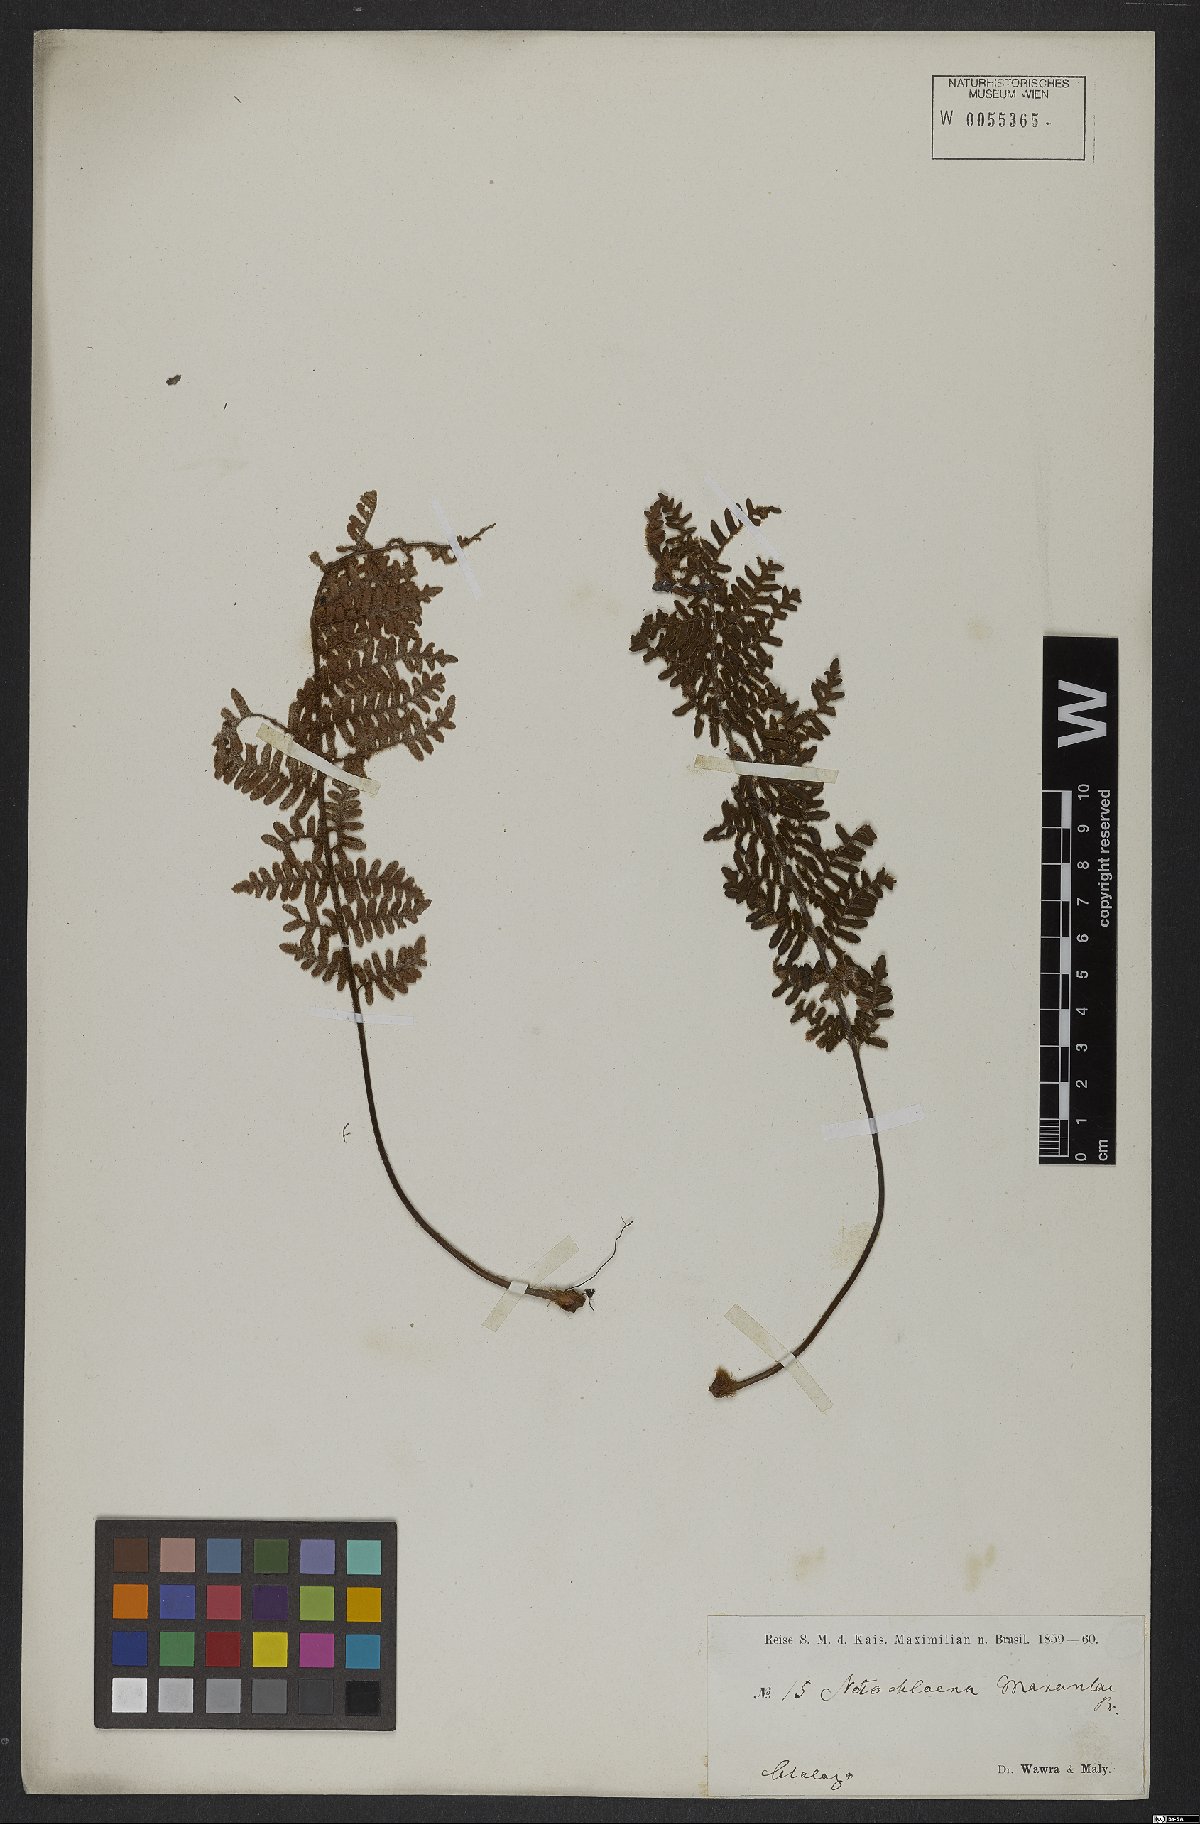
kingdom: Plantae
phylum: Tracheophyta
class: Polypodiopsida
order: Polypodiales
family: Pteridaceae
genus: Cheilanthes
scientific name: Cheilanthes pohliana
